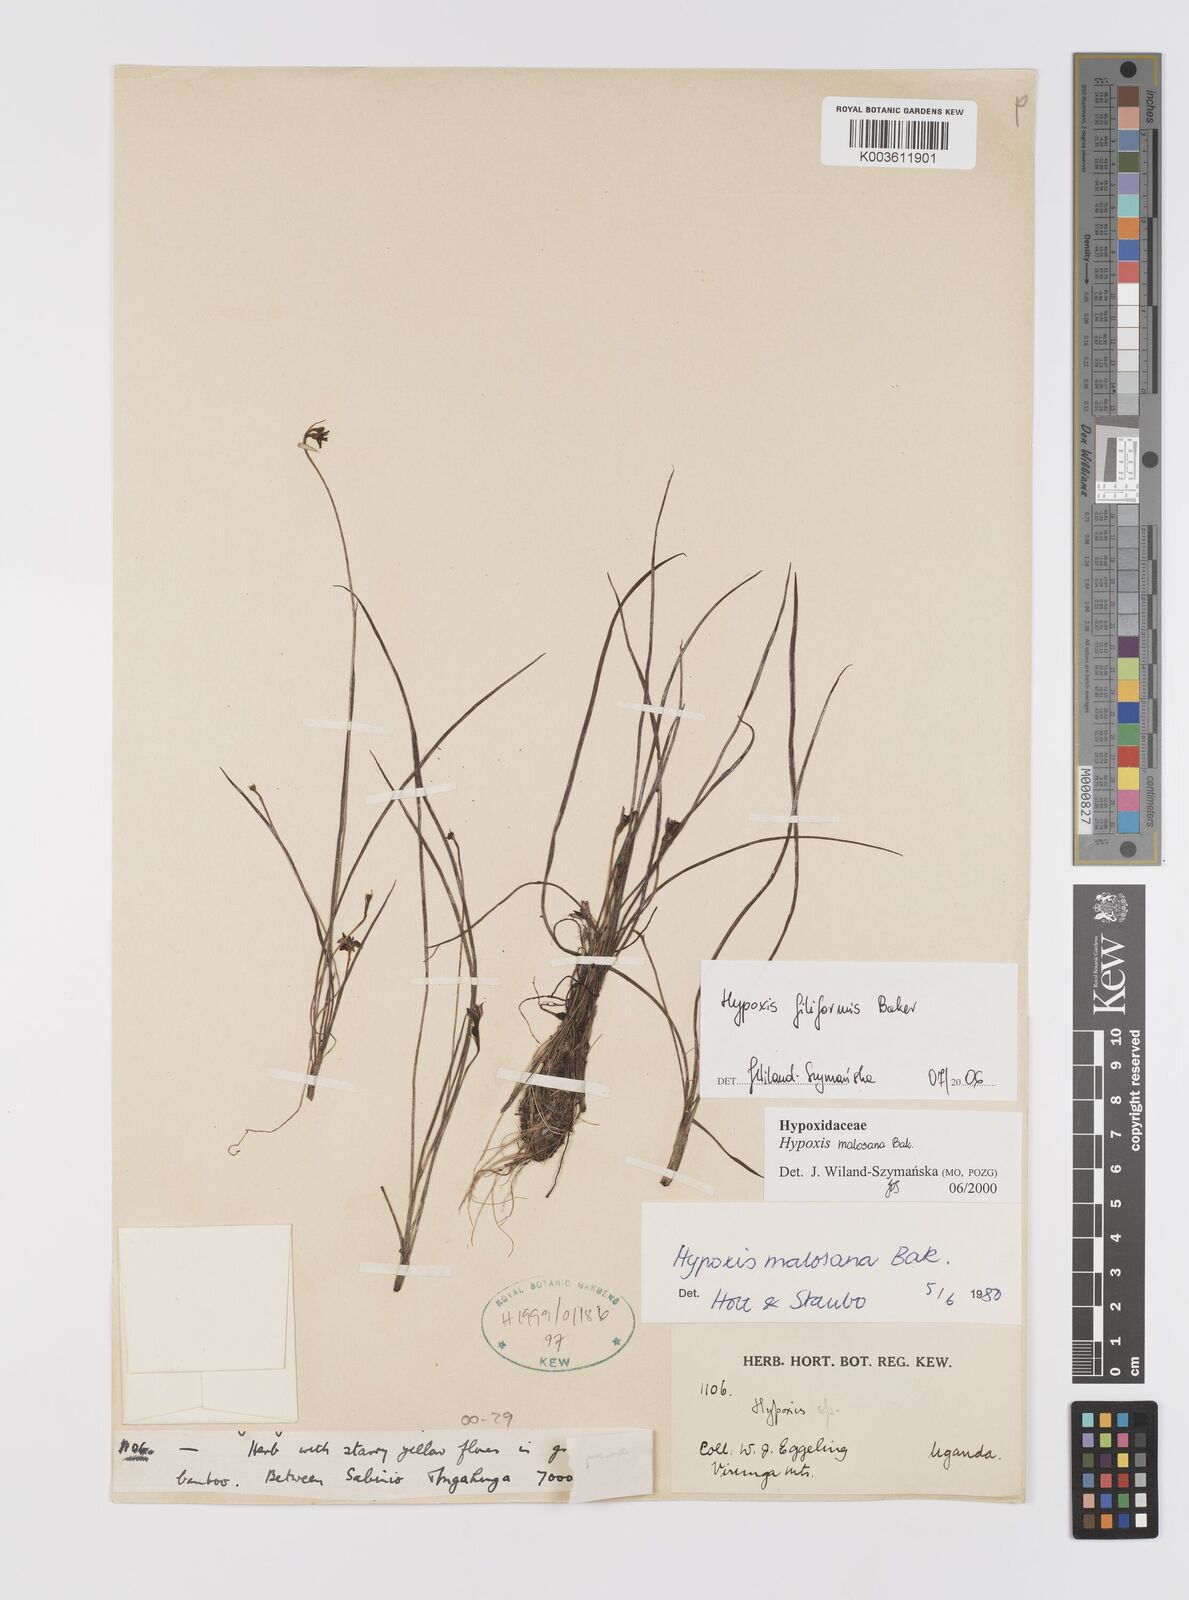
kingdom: Plantae
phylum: Tracheophyta
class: Liliopsida
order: Asparagales
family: Hypoxidaceae
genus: Hypoxis
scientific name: Hypoxis filiformis
